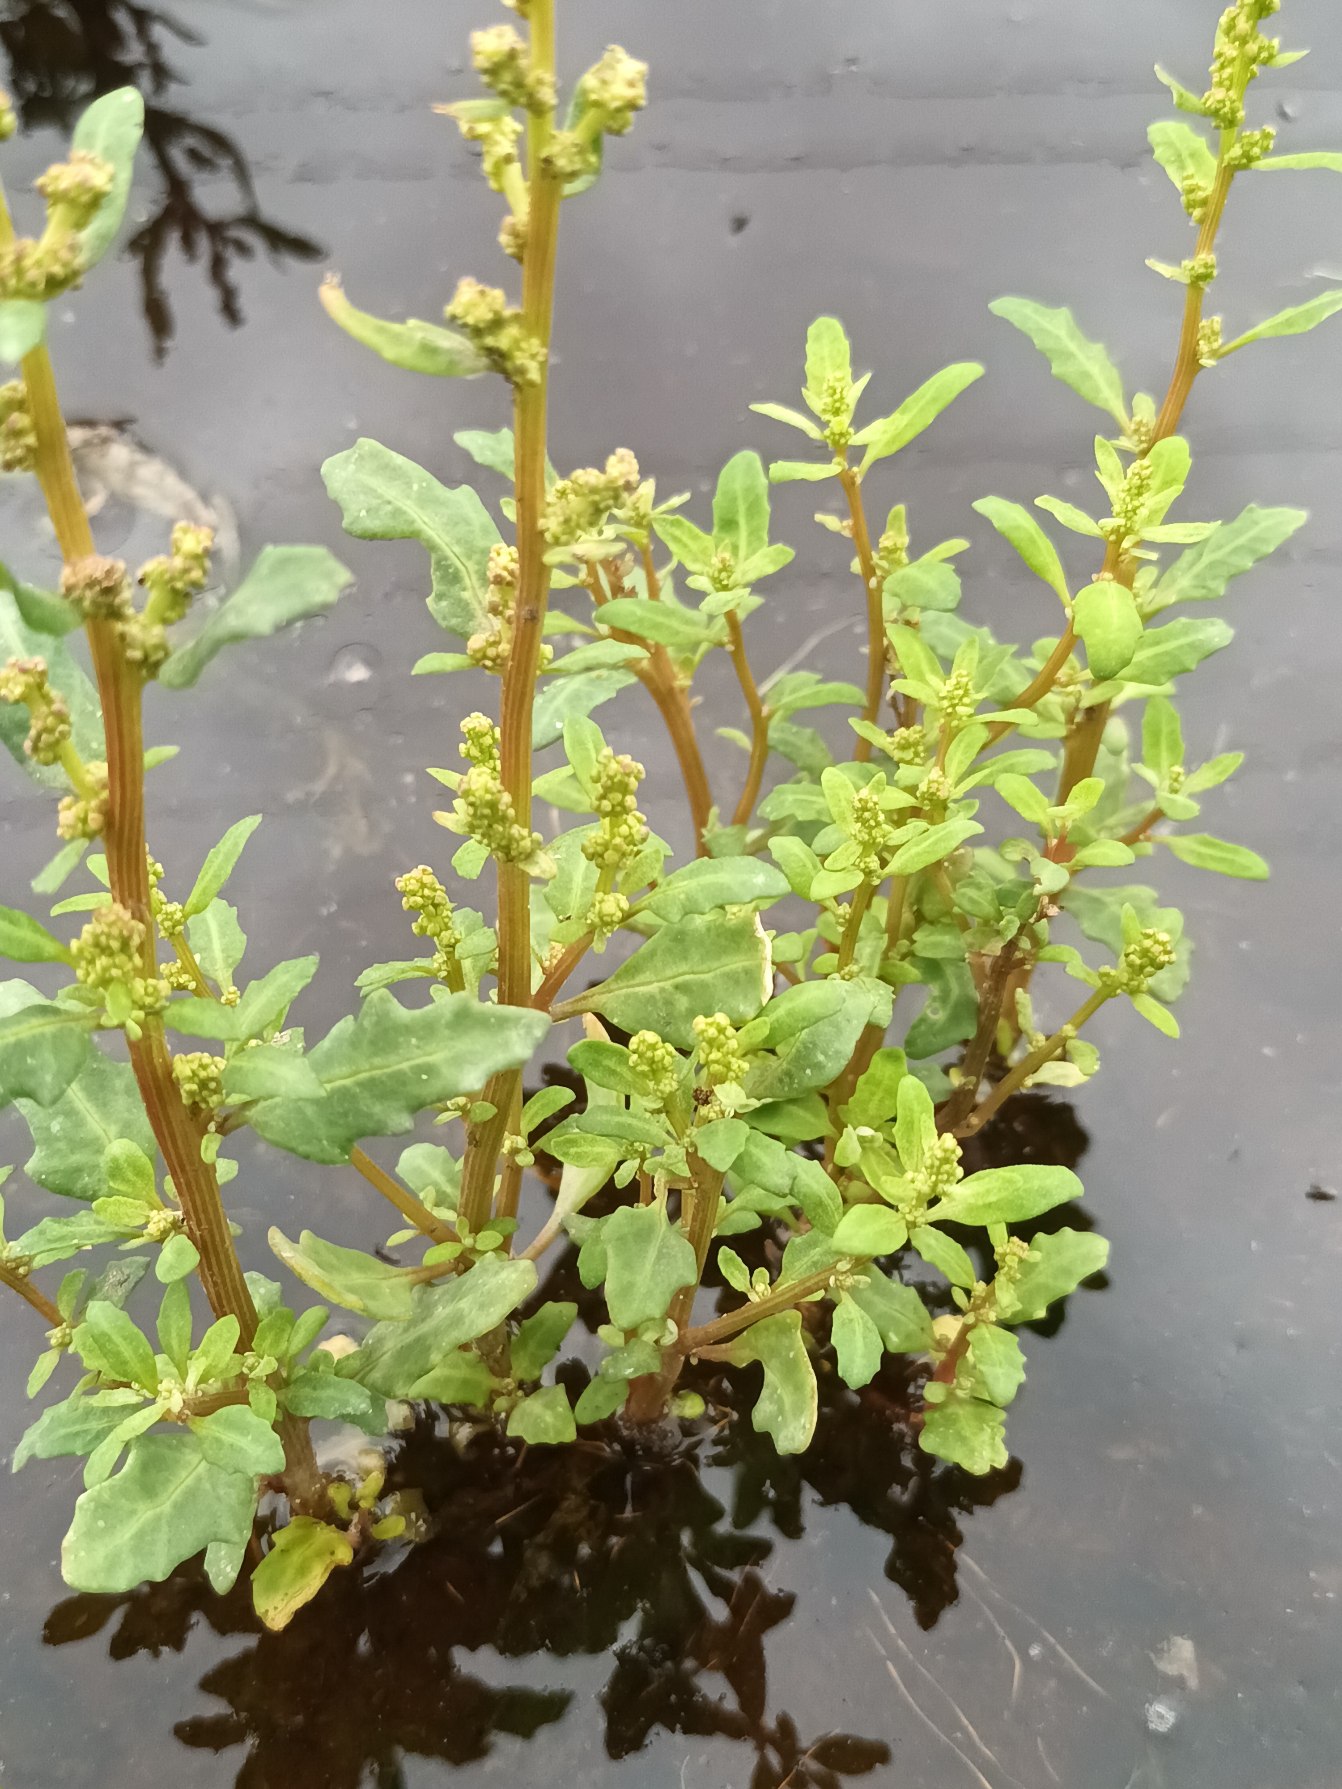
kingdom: Plantae
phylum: Tracheophyta
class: Magnoliopsida
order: Caryophyllales
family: Amaranthaceae
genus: Oxybasis
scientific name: Oxybasis glauca
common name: Blågrøn gåsefod
